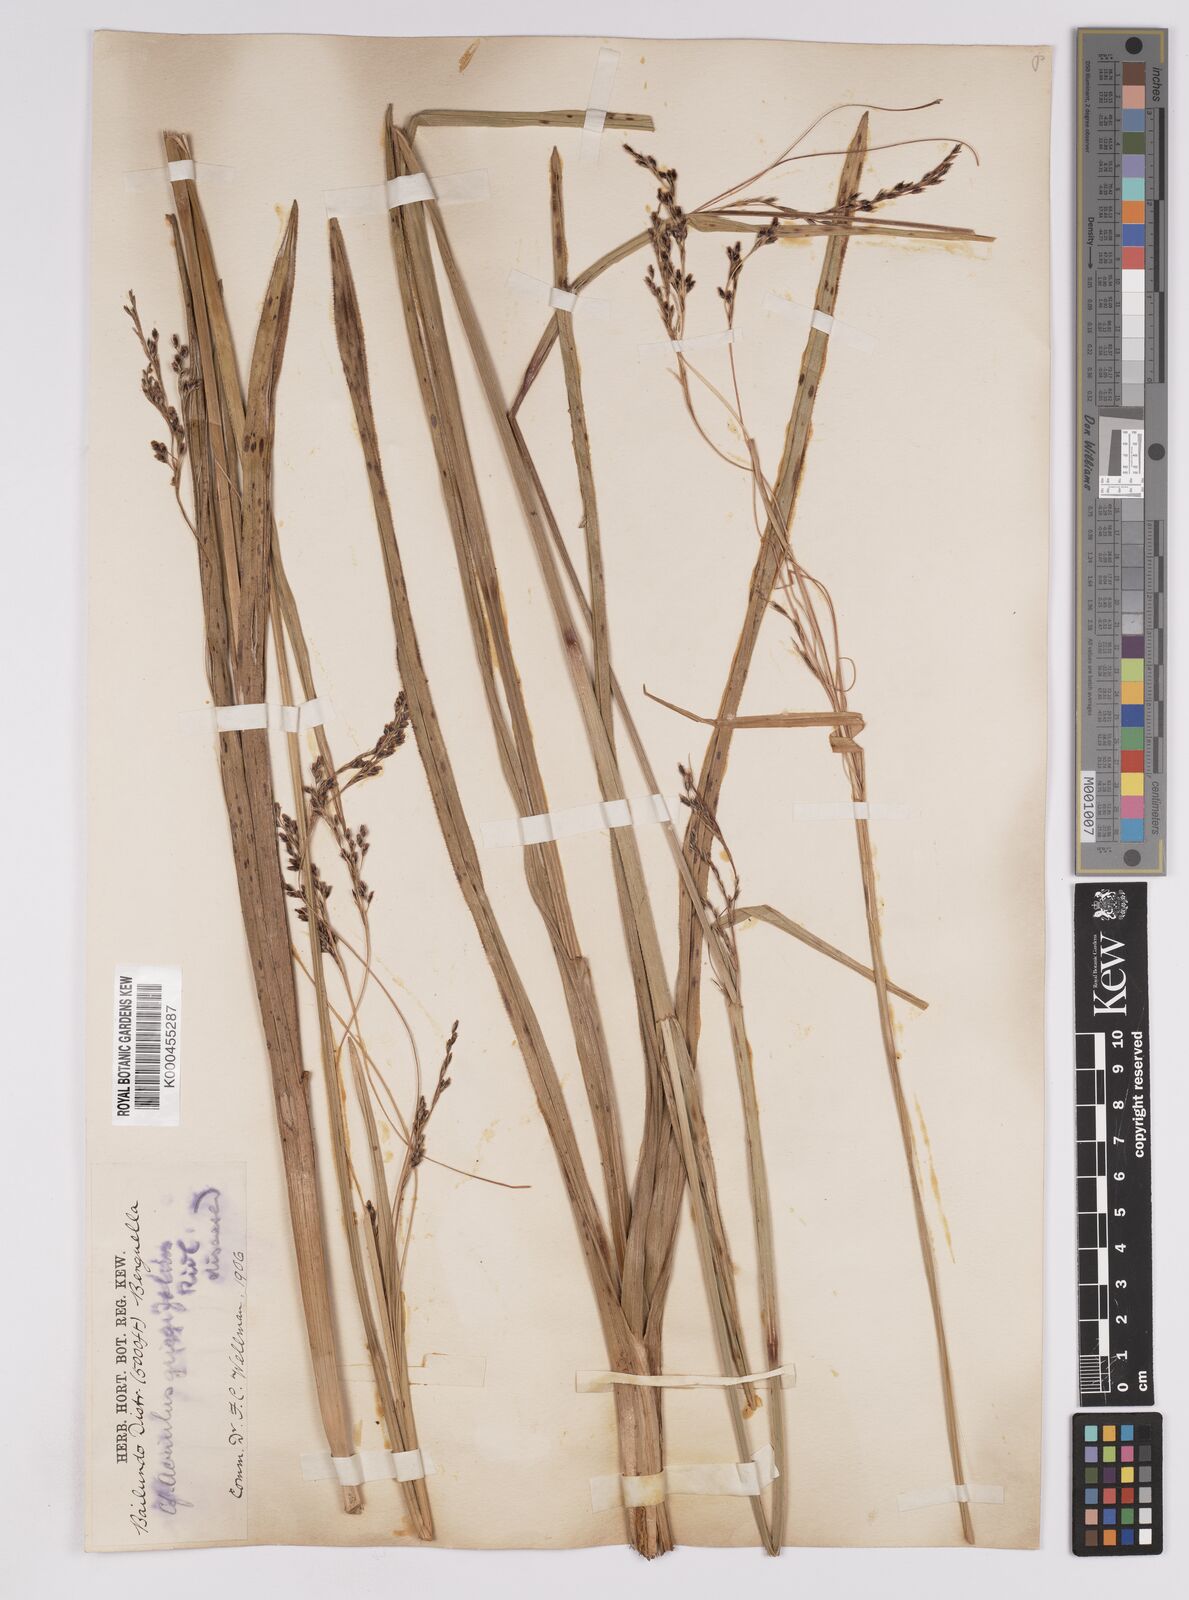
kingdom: Plantae
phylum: Tracheophyta
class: Liliopsida
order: Poales
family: Cyperaceae
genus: Scleria
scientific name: Scleria greigiifolia
